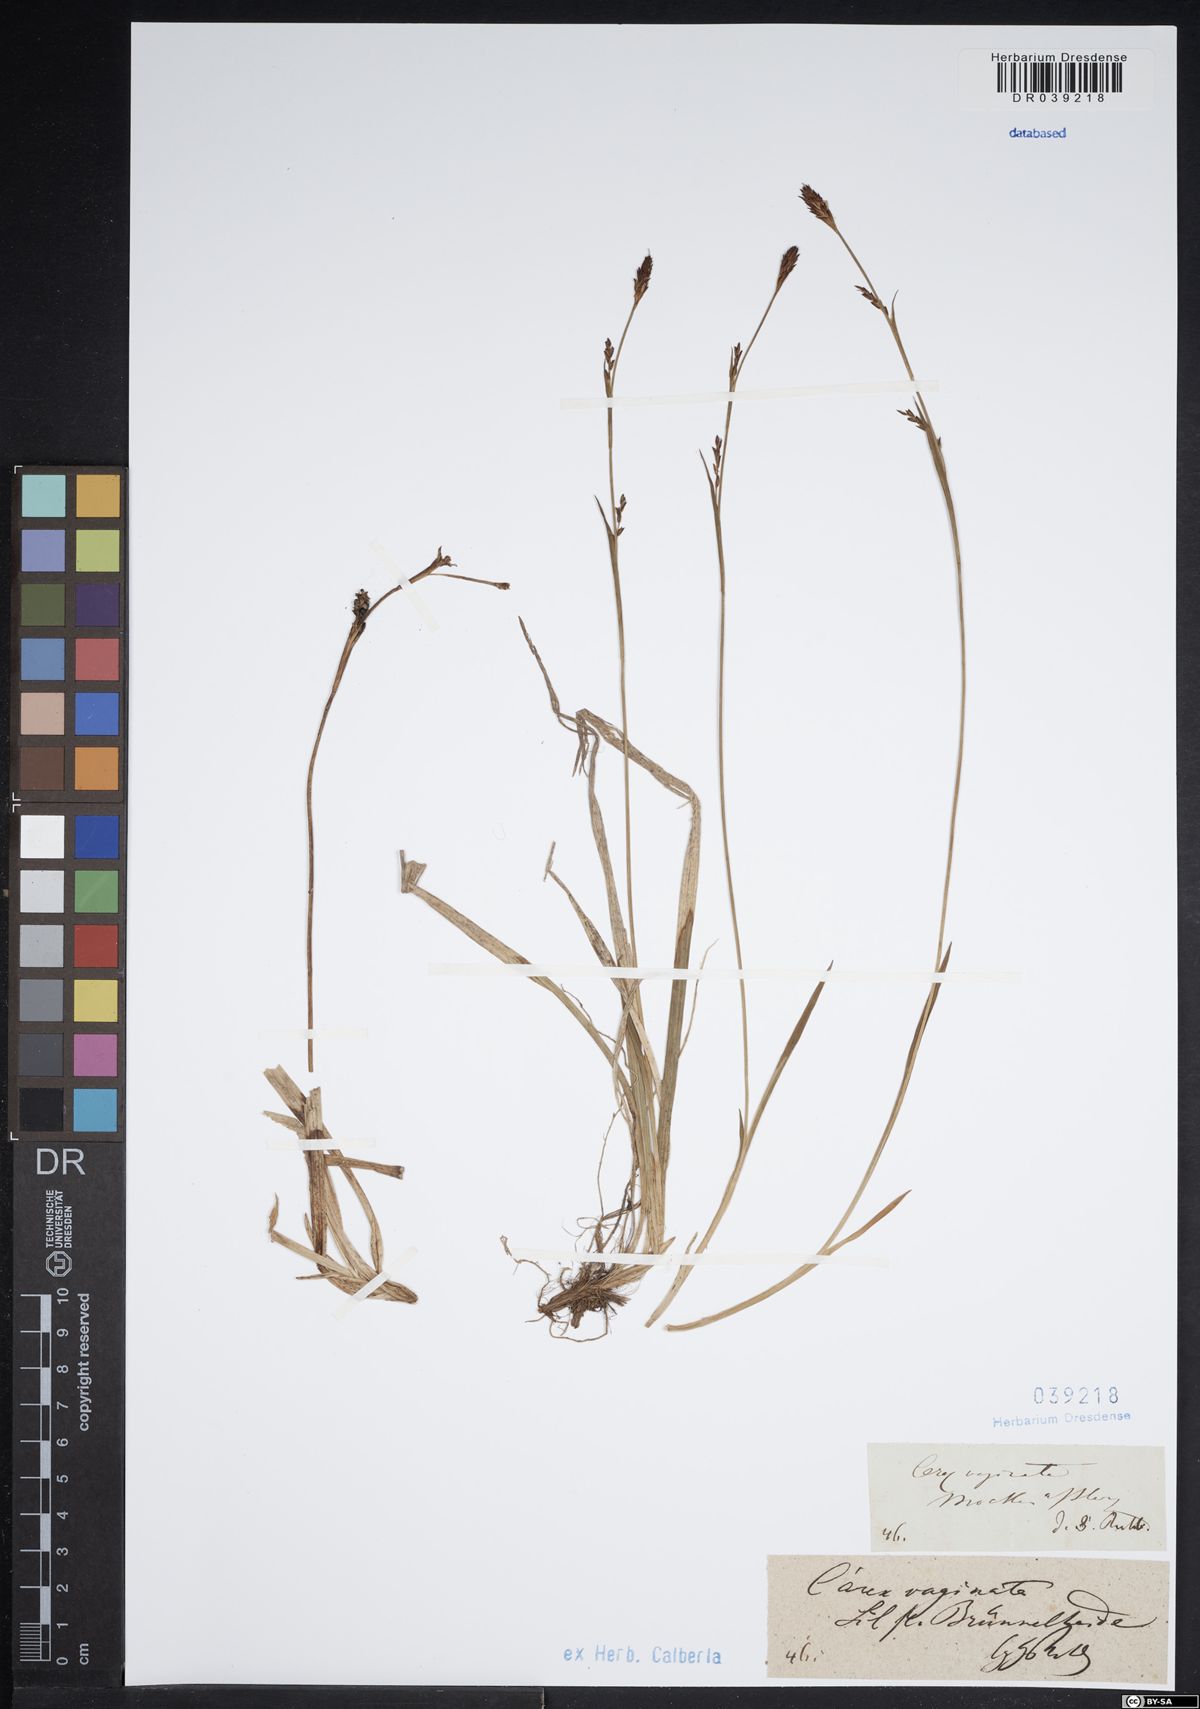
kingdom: Plantae
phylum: Tracheophyta
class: Liliopsida
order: Poales
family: Cyperaceae
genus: Carex
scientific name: Carex vaginata
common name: Sheathed sedge
